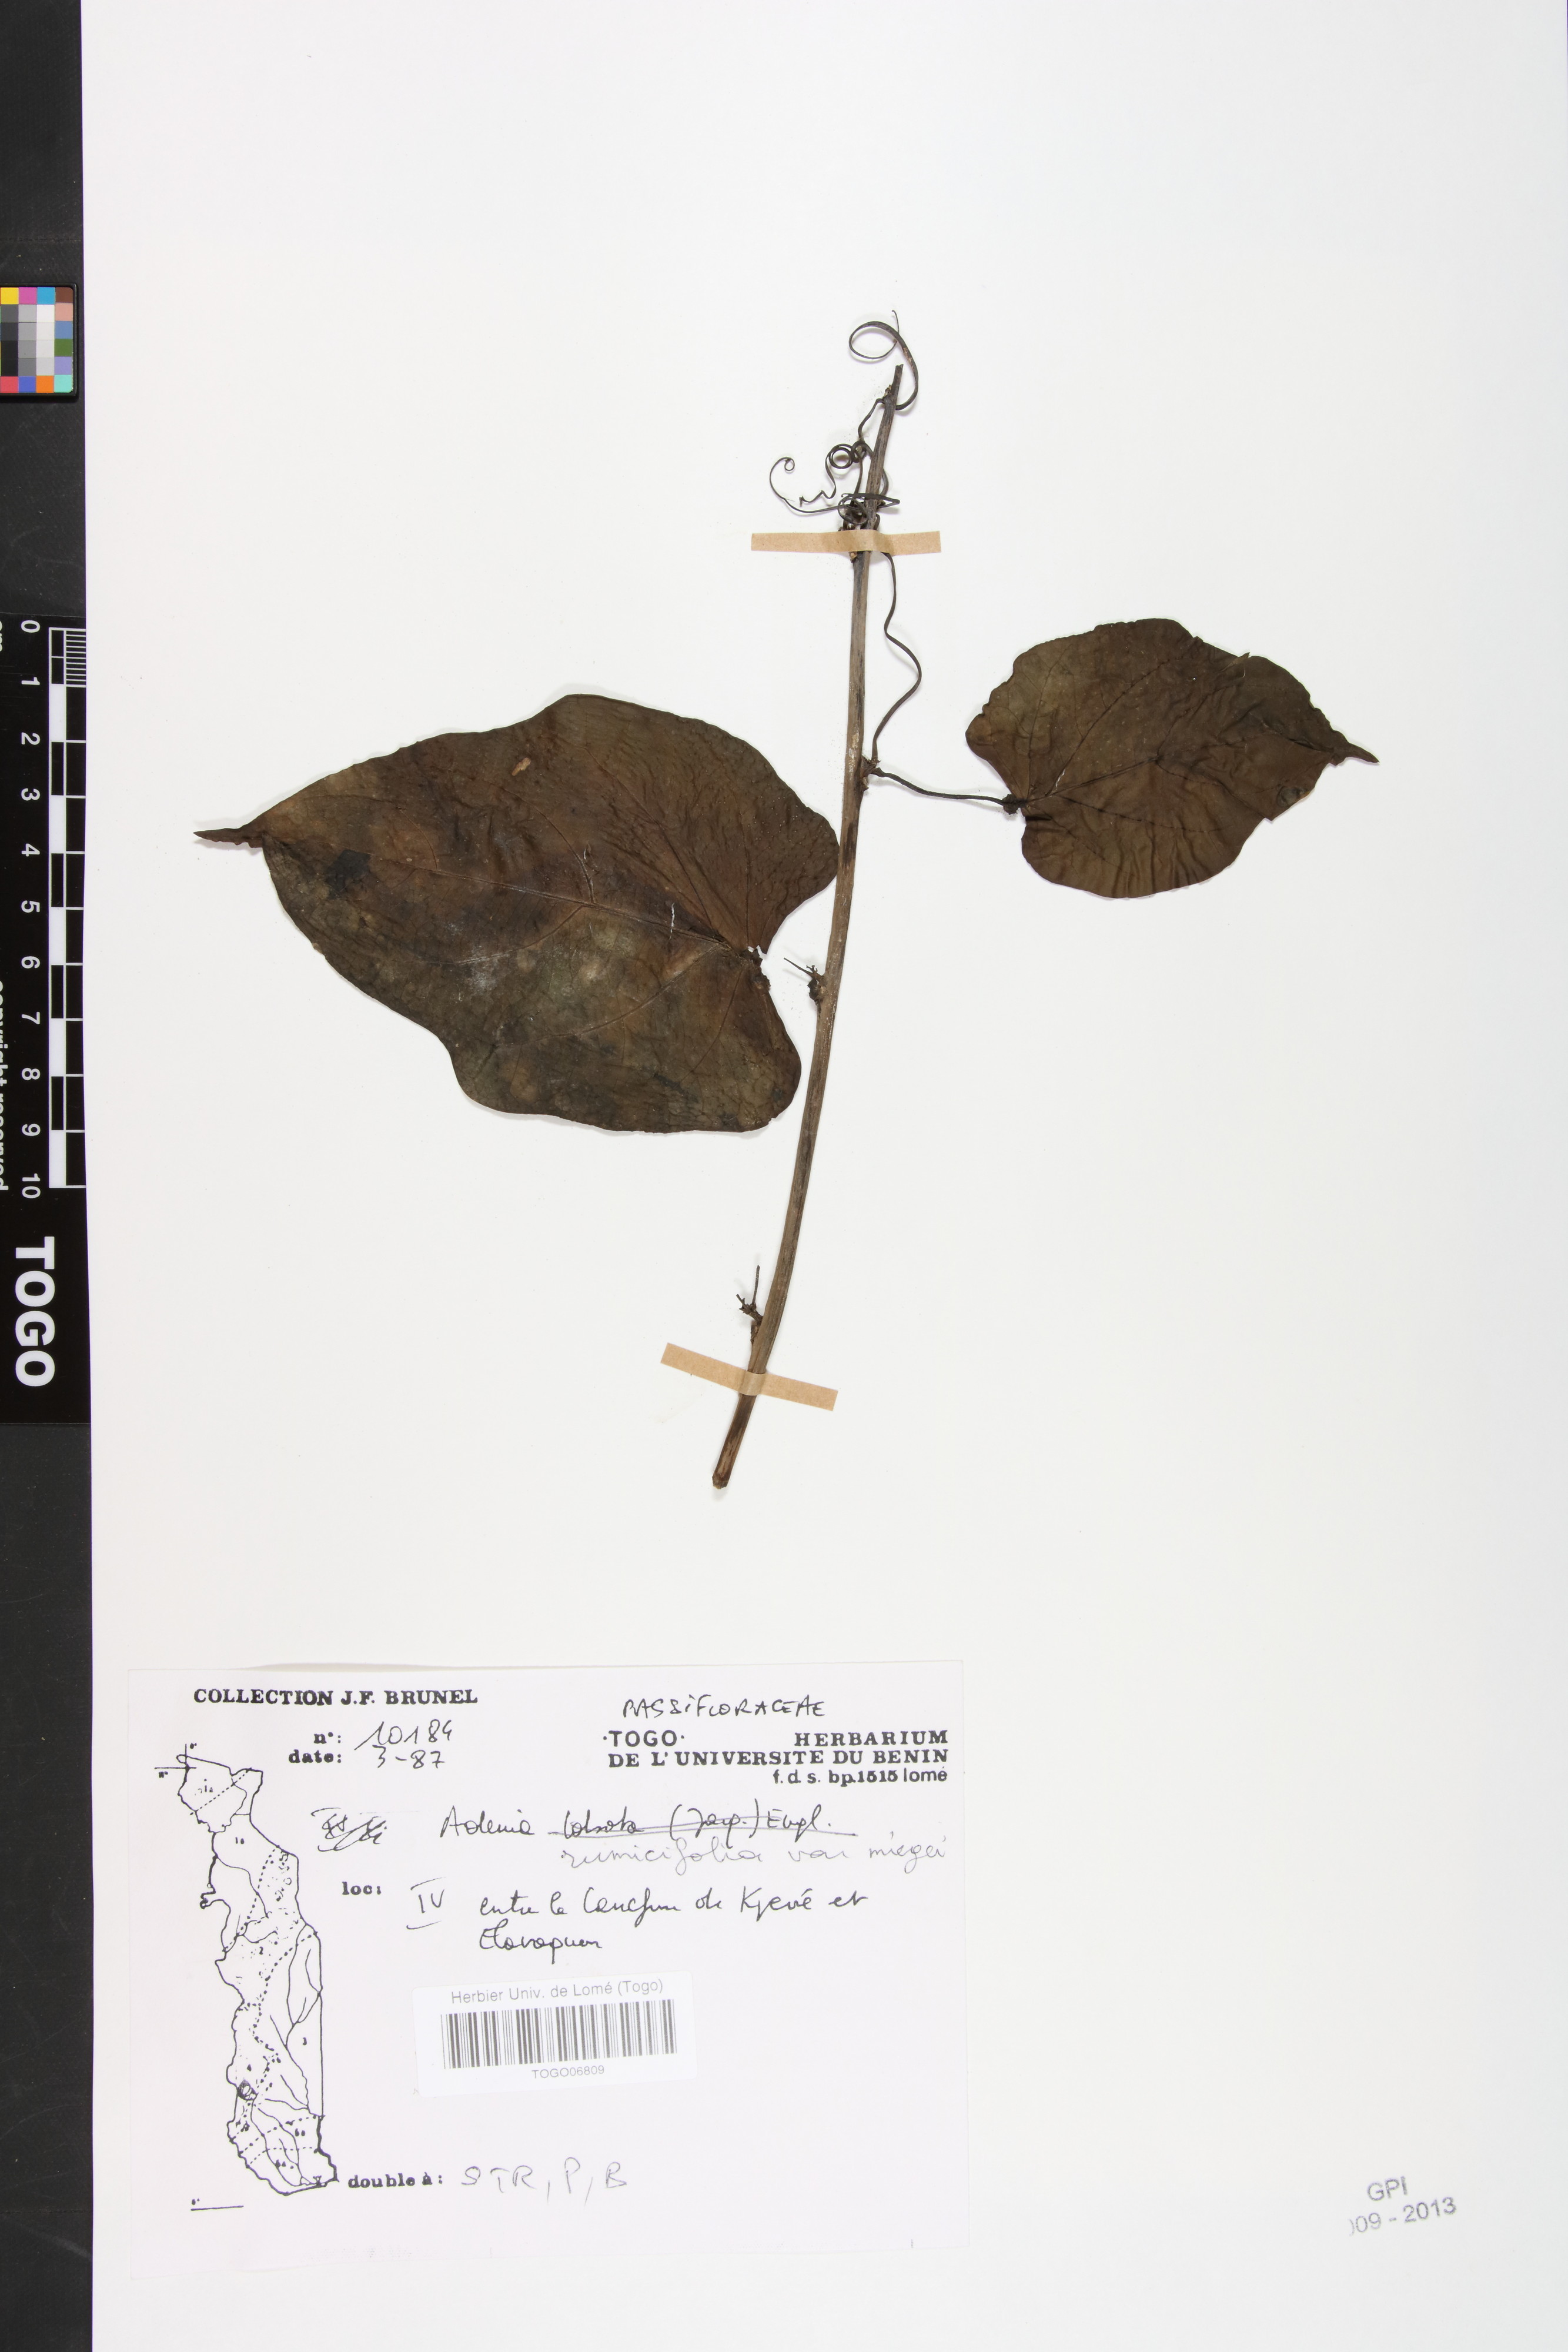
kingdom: Plantae
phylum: Tracheophyta
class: Magnoliopsida
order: Malpighiales
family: Passifloraceae
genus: Adenia
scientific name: Adenia lobata
